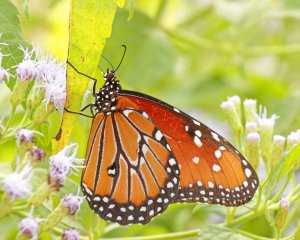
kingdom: Animalia
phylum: Arthropoda
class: Insecta
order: Lepidoptera
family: Nymphalidae
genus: Danaus
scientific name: Danaus gilippus
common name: Queen
